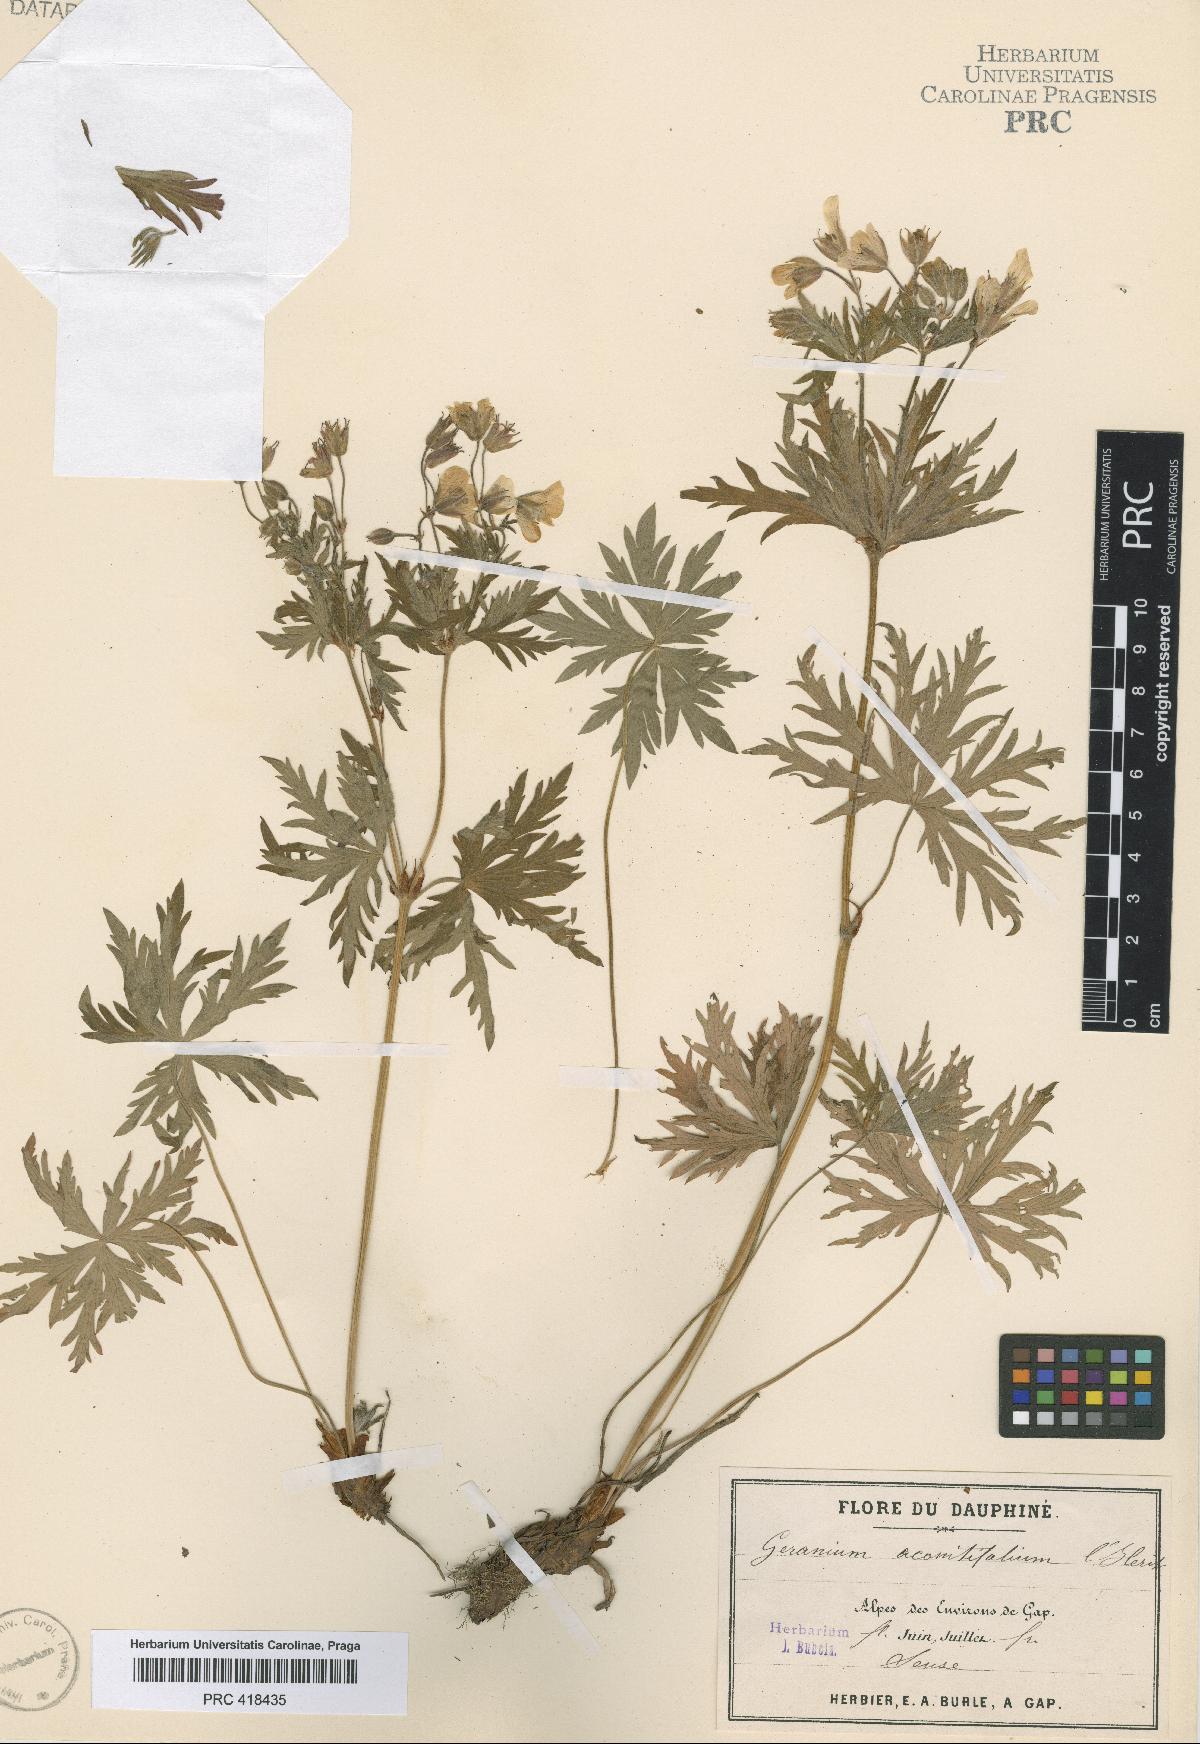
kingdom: Plantae
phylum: Tracheophyta
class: Magnoliopsida
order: Geraniales
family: Geraniaceae
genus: Geranium
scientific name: Geranium rivulare
